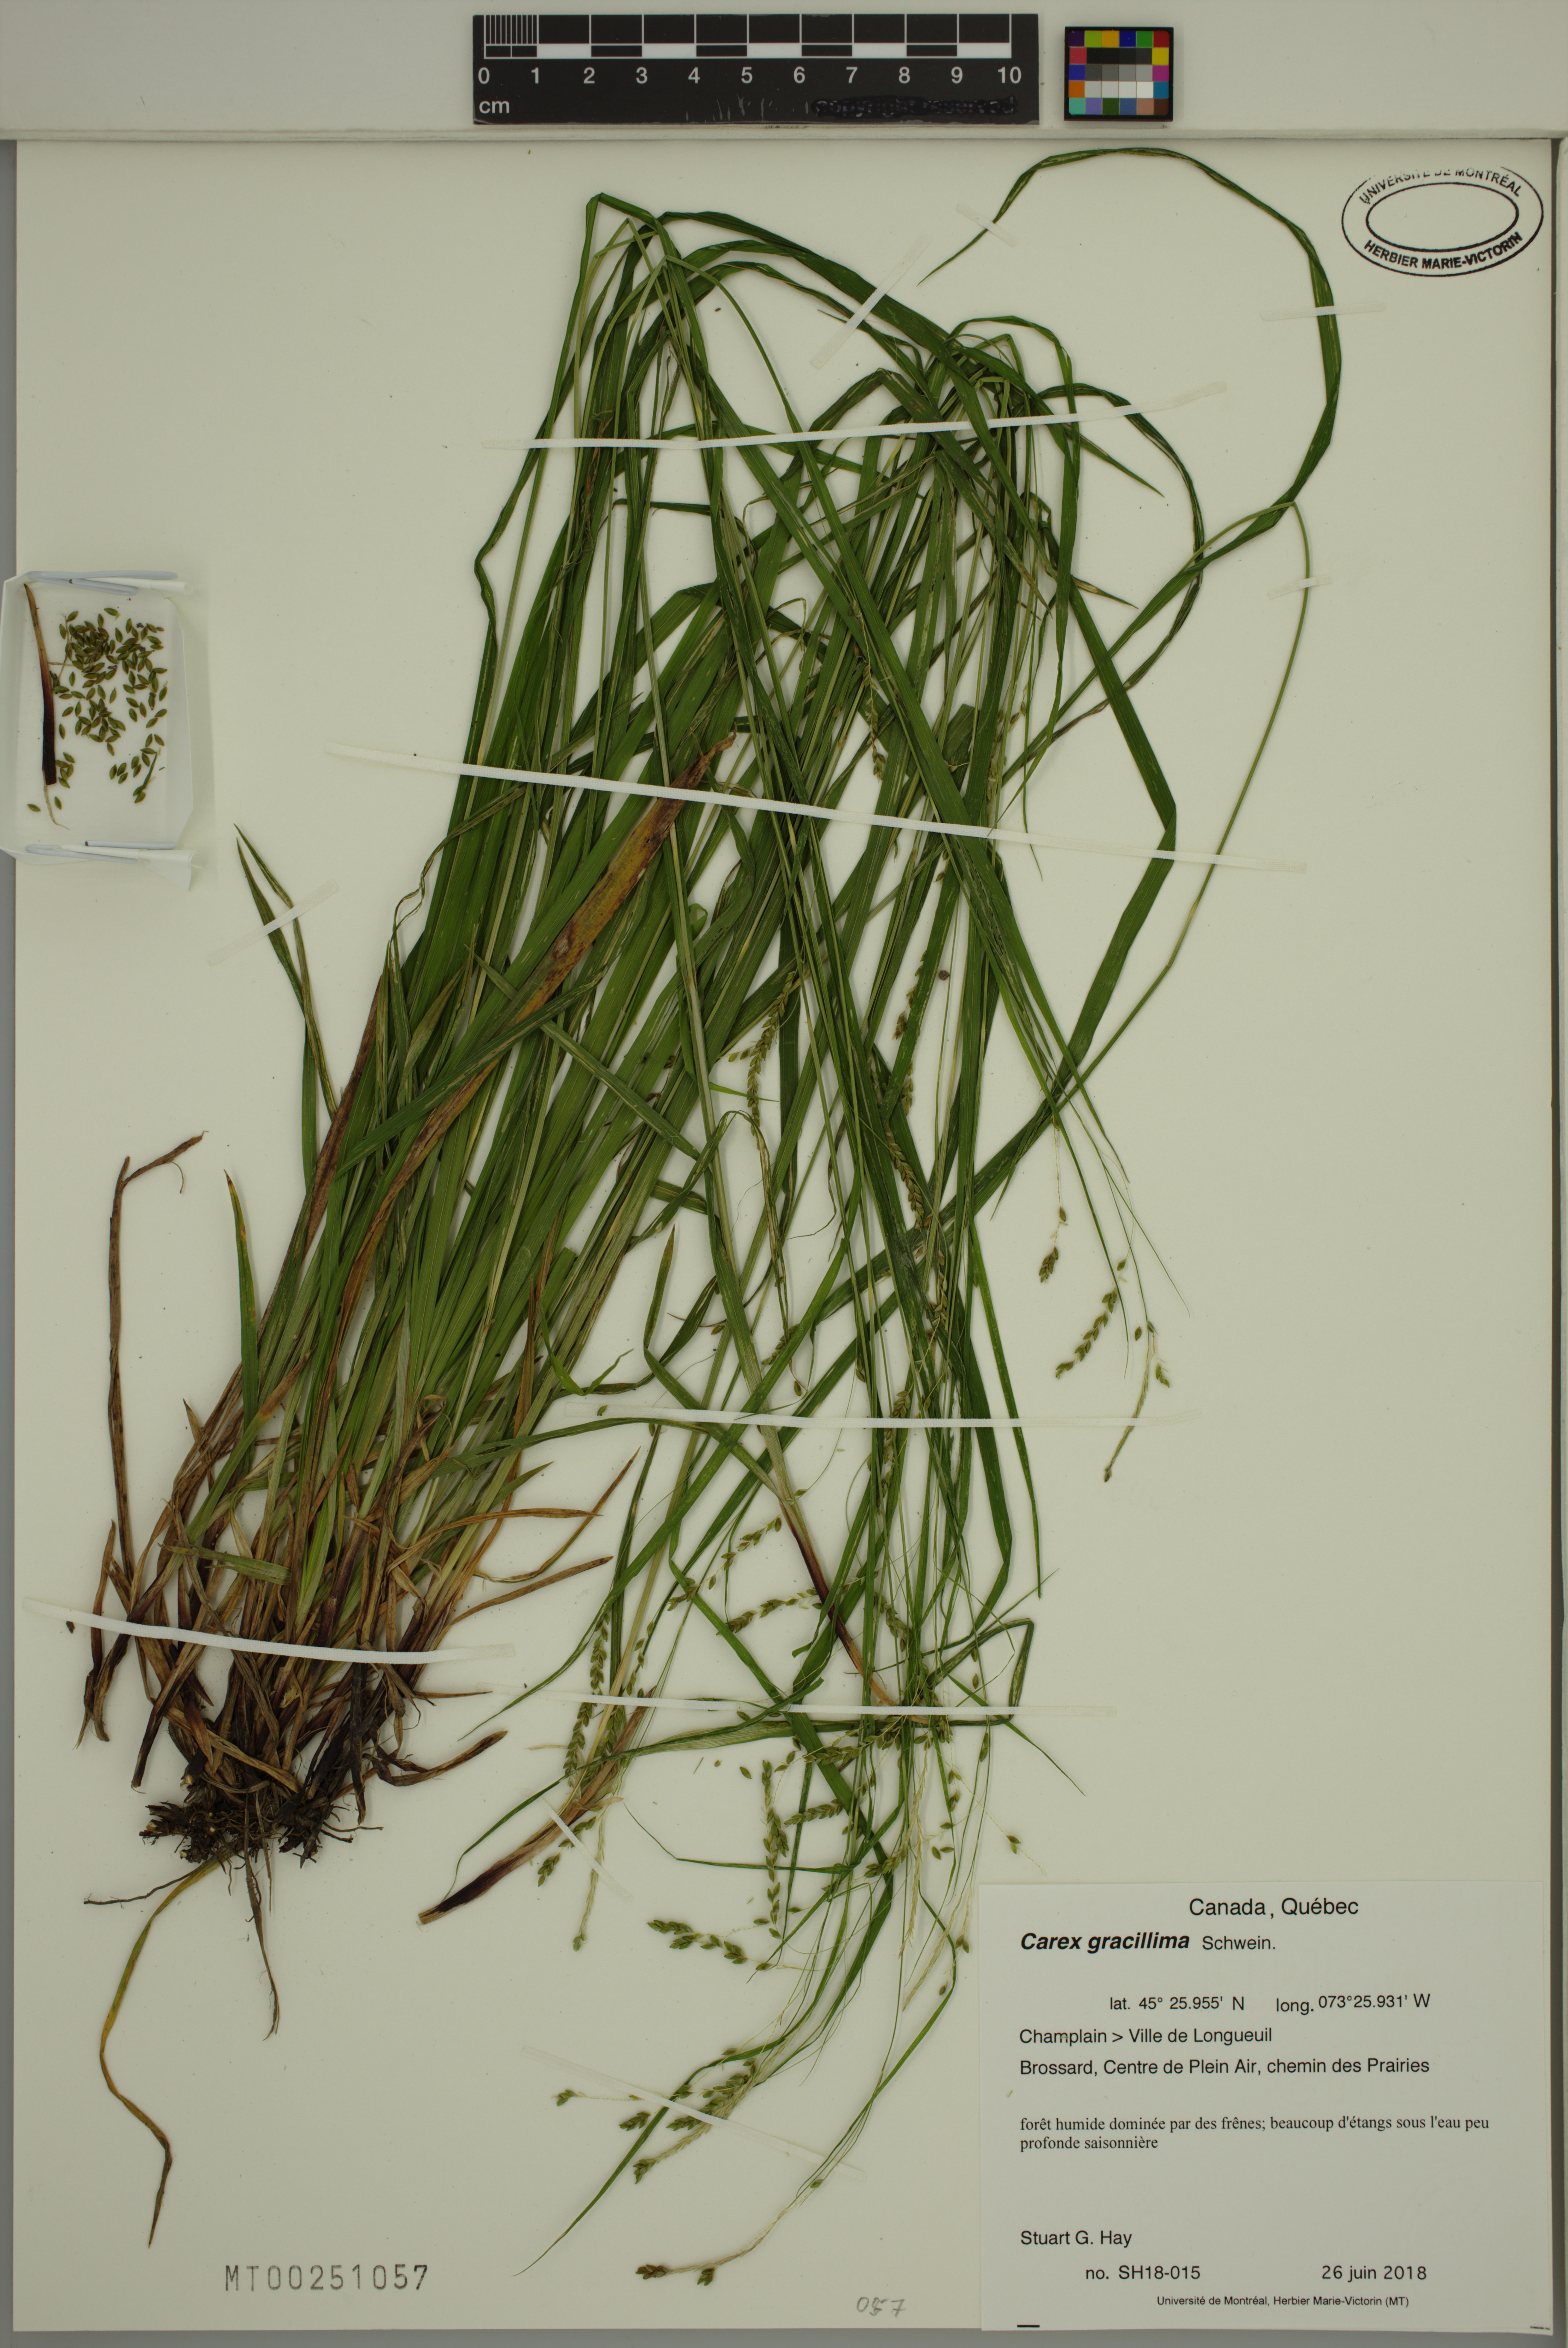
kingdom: Plantae
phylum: Tracheophyta
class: Liliopsida
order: Poales
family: Cyperaceae
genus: Carex
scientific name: Carex gracillima
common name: Graceful sedge
